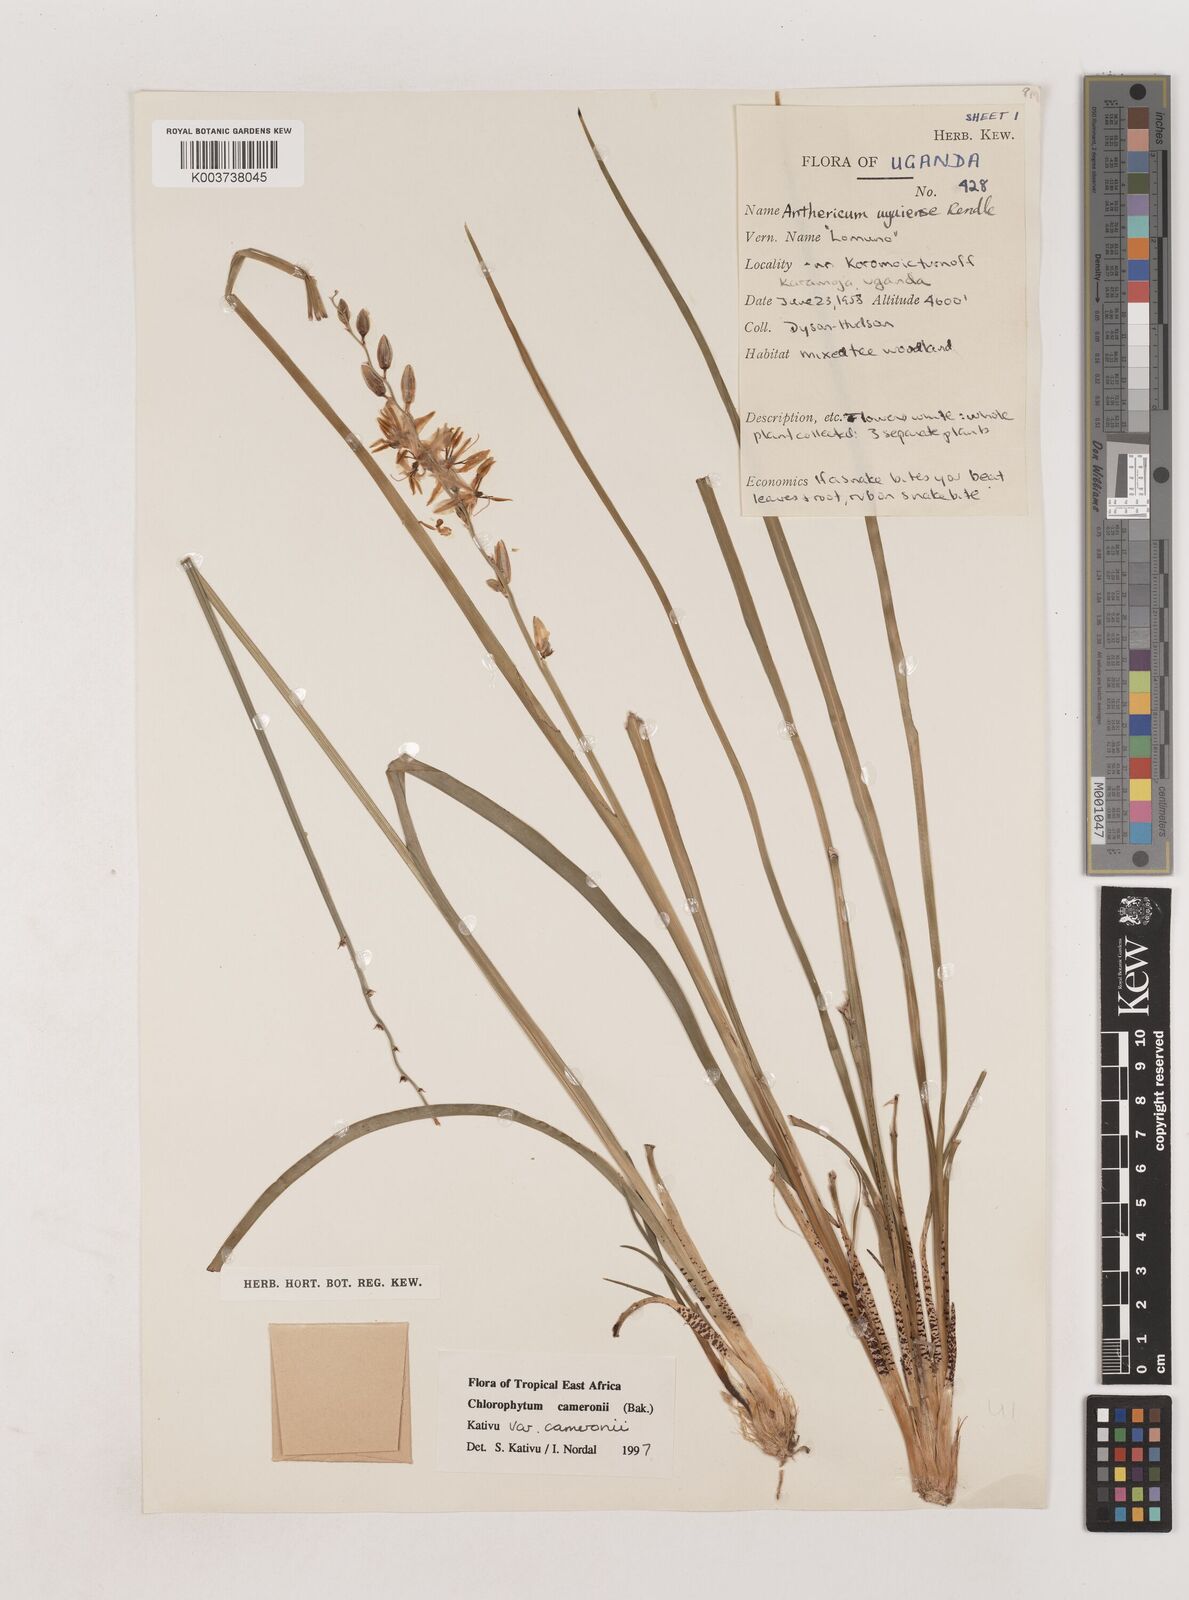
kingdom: Plantae
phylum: Tracheophyta
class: Liliopsida
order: Asparagales
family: Asparagaceae
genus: Chlorophytum
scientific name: Chlorophytum cameronii
